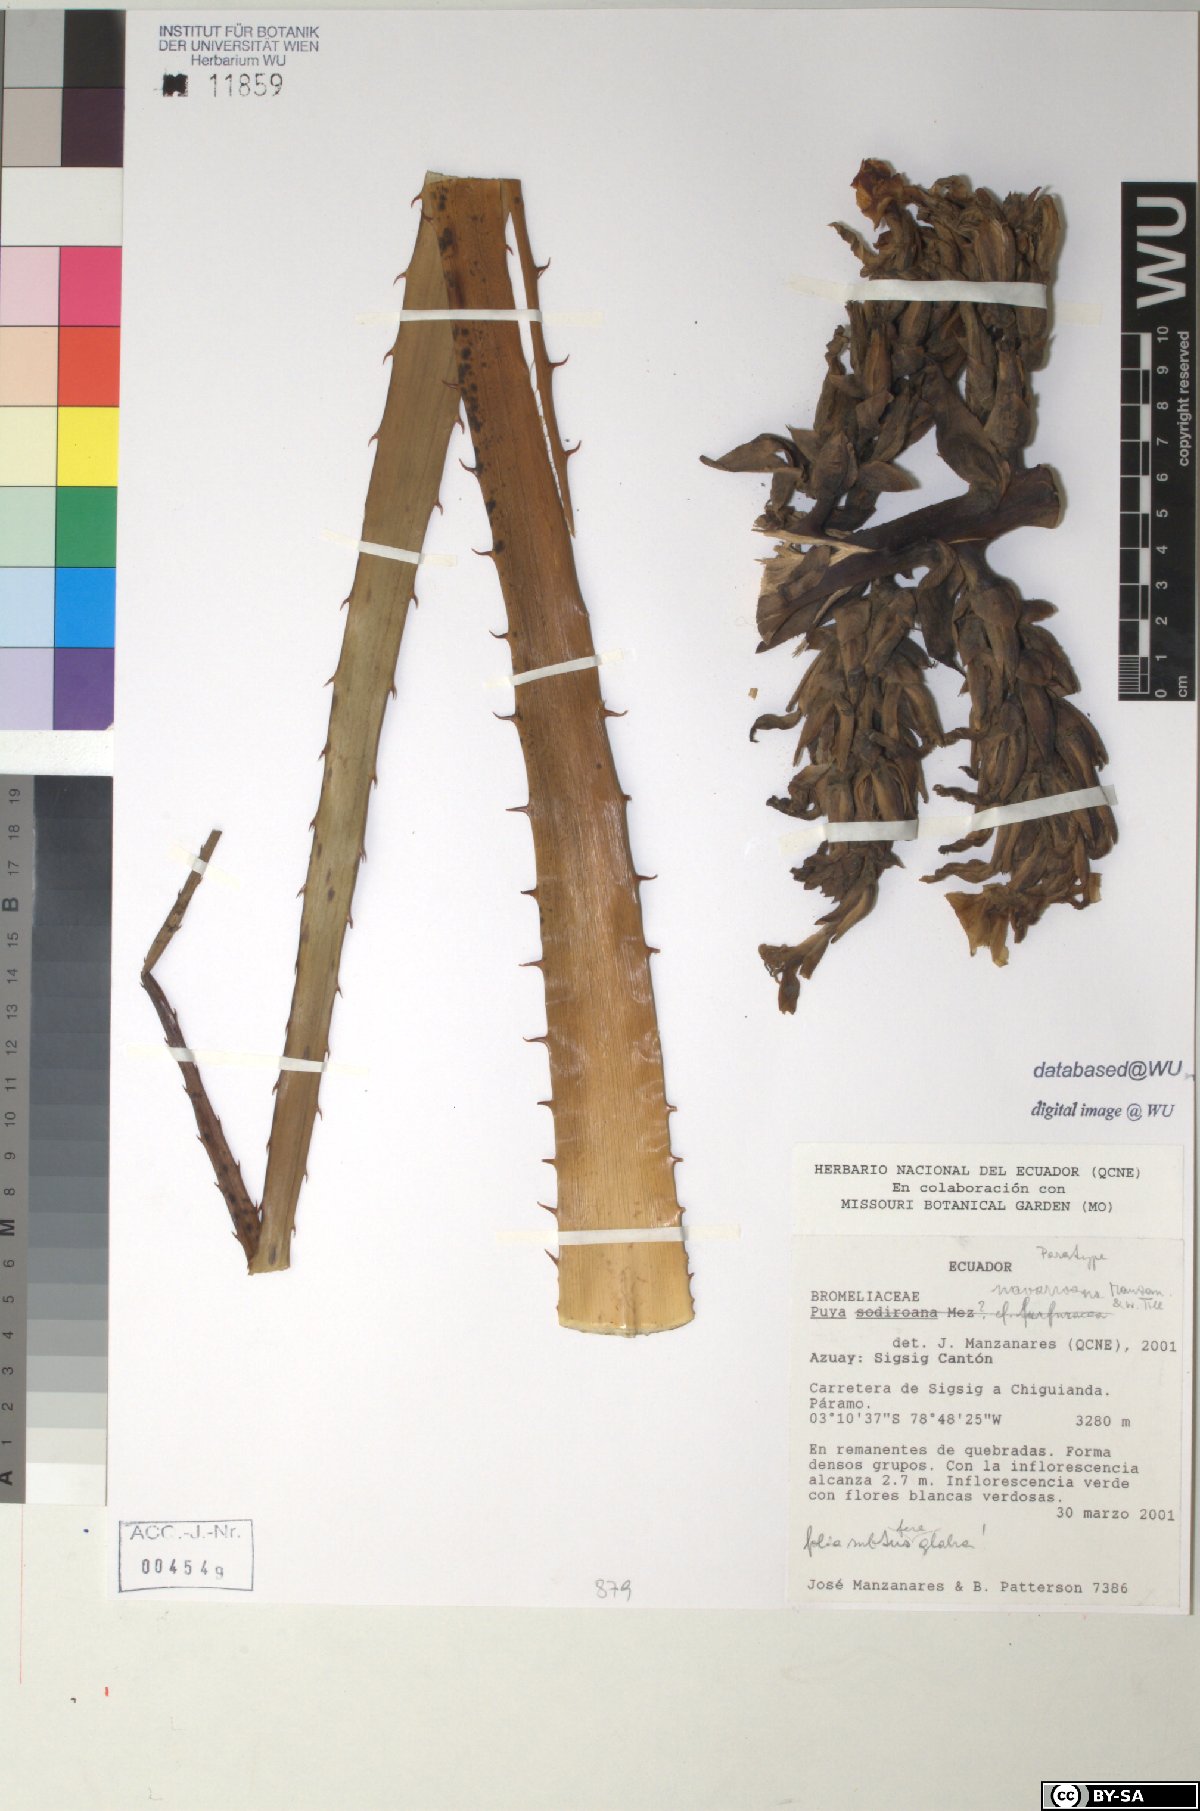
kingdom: Plantae
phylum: Tracheophyta
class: Liliopsida
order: Poales
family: Bromeliaceae
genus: Puya
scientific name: Puya navarroana
